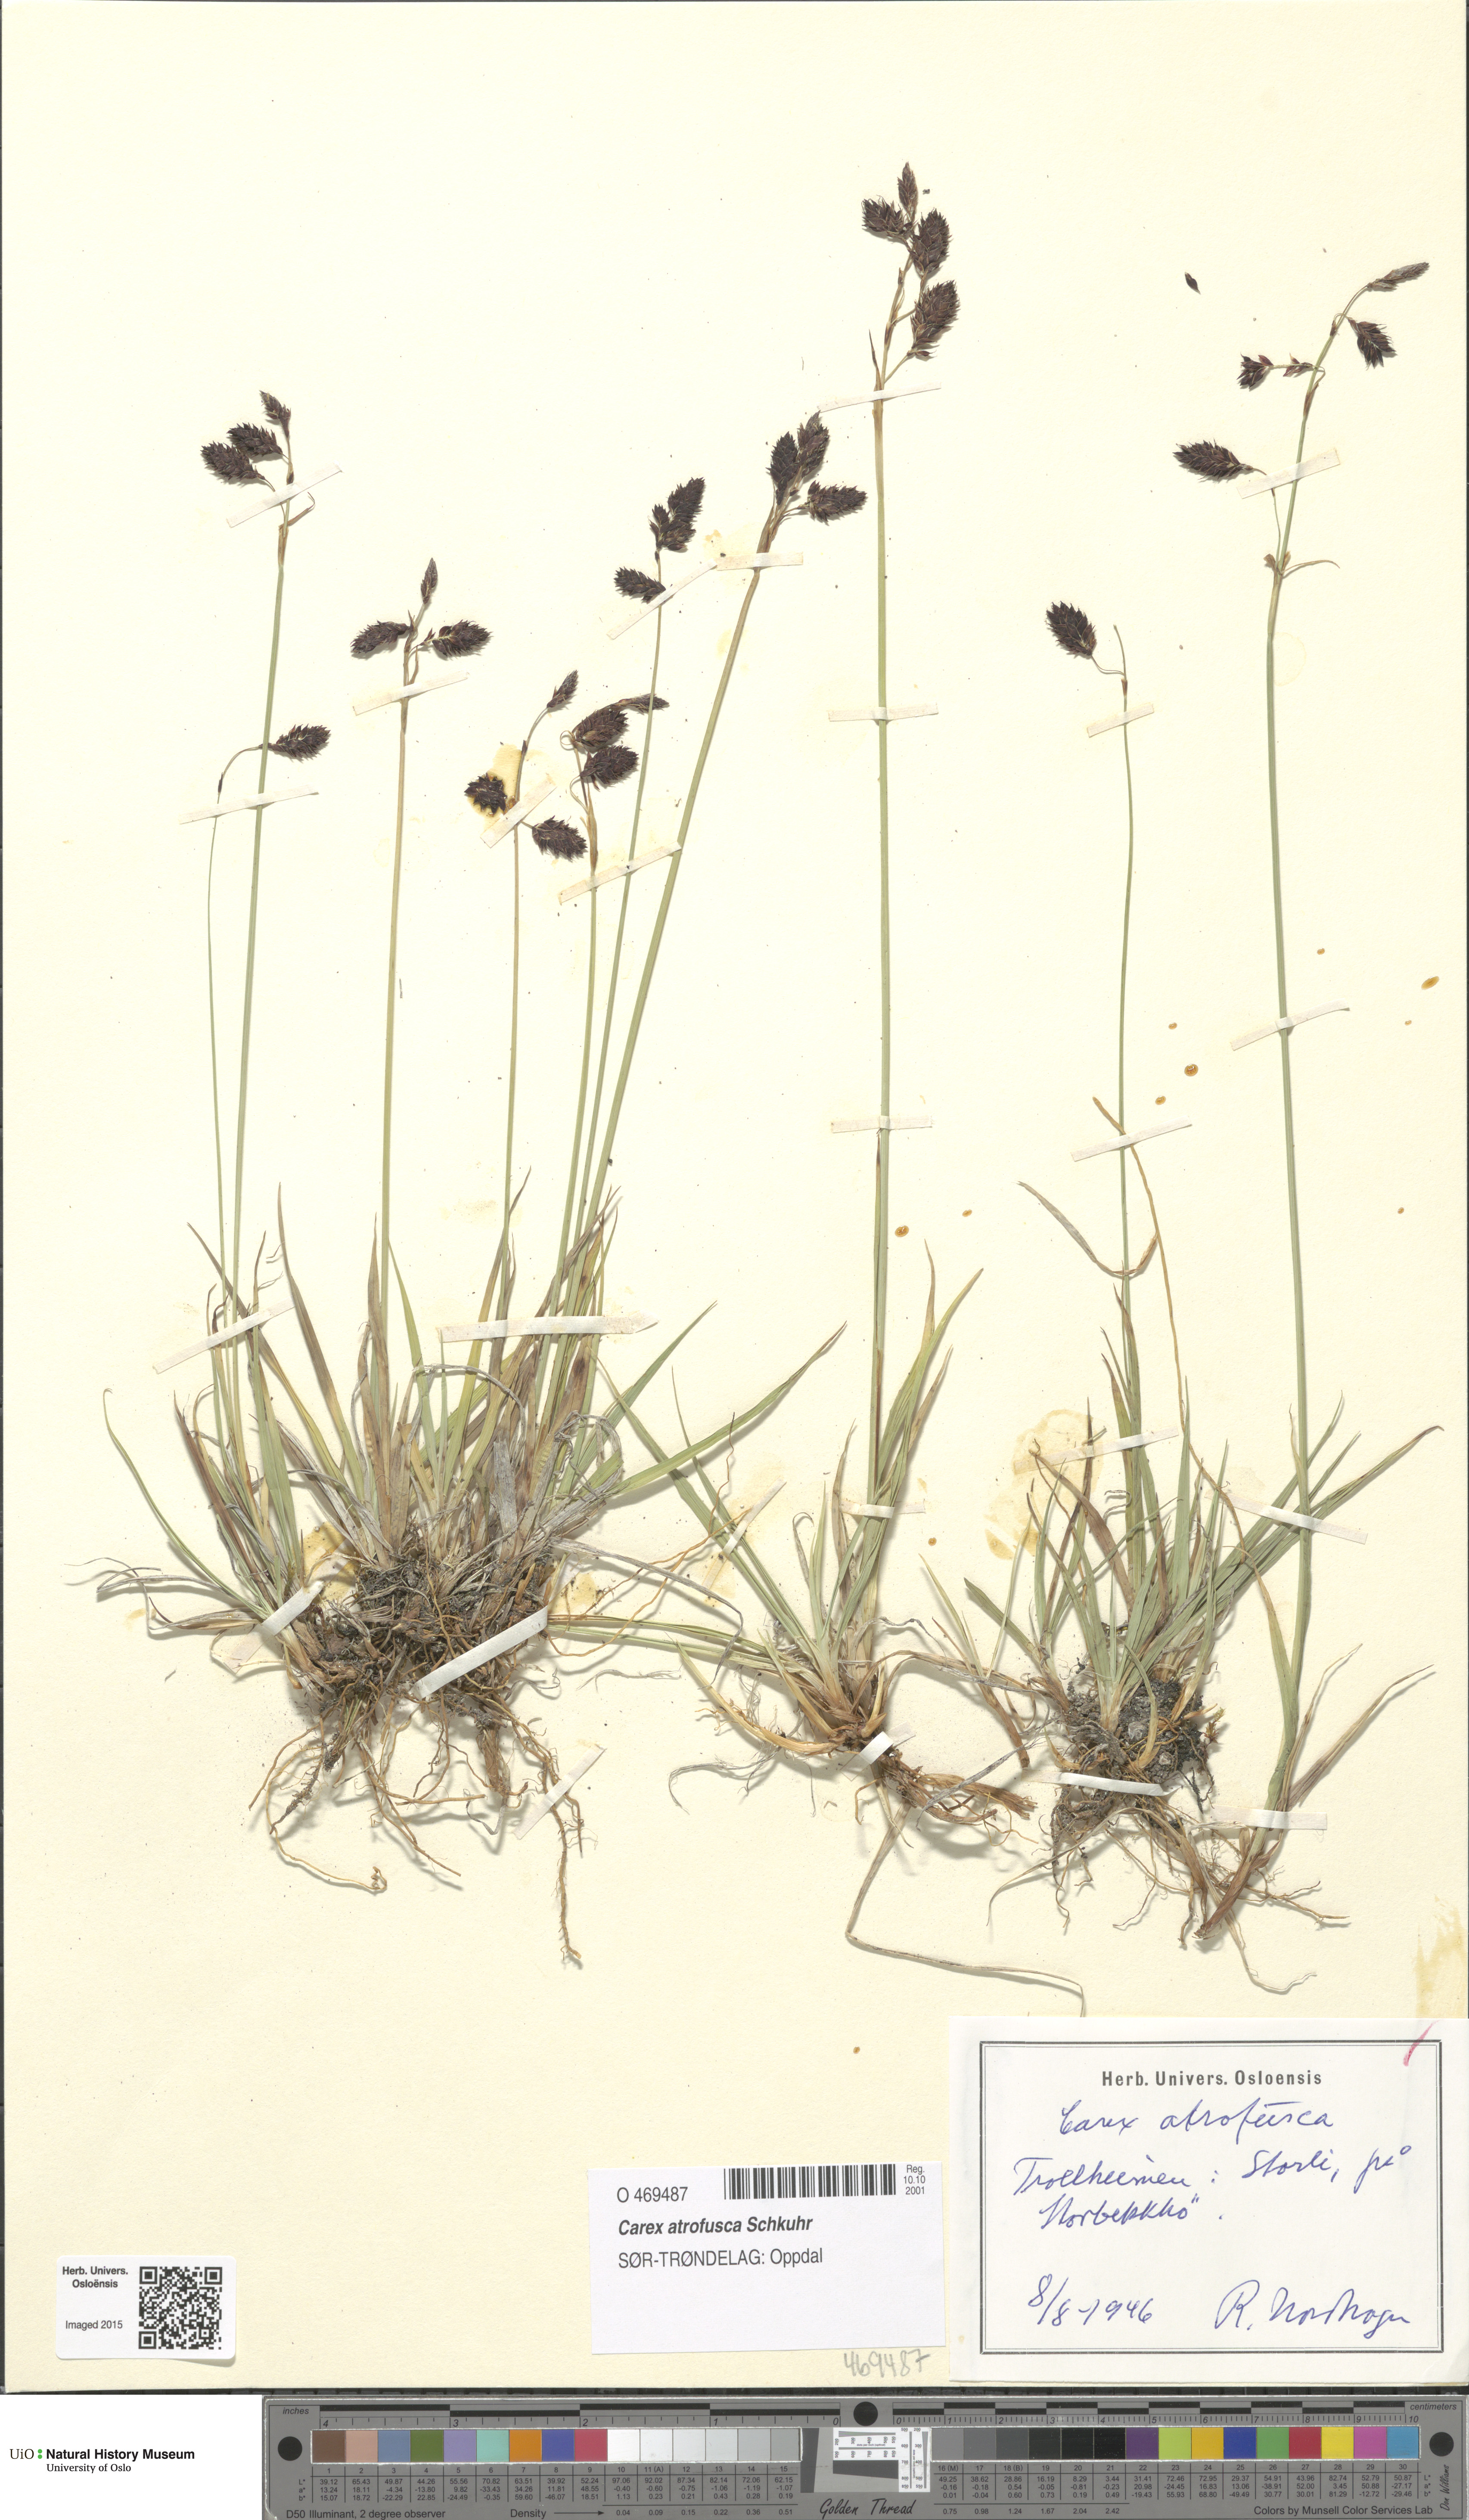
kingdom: Plantae
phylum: Tracheophyta
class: Liliopsida
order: Poales
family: Cyperaceae
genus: Carex
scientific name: Carex atrofusca
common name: Scorched alpine-sedge
